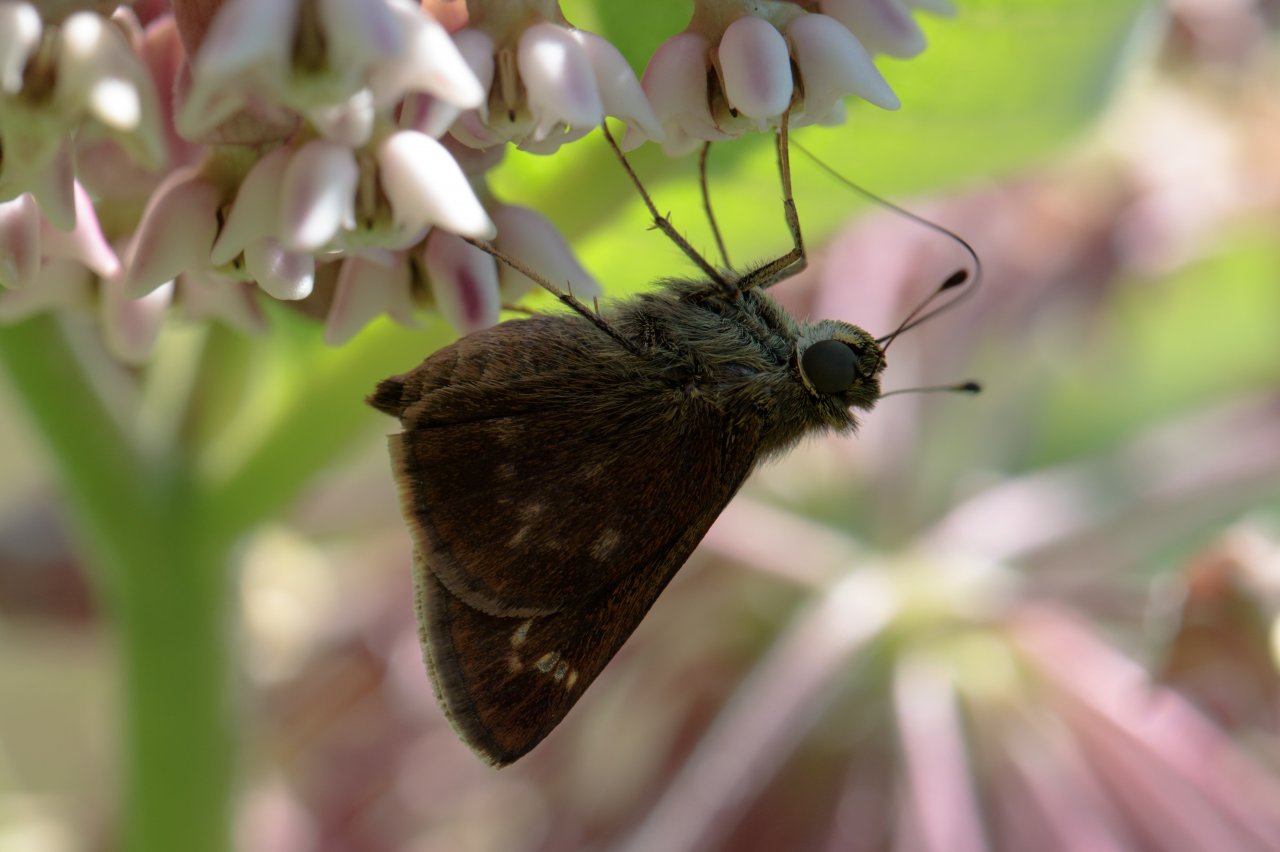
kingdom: Animalia
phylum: Arthropoda
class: Insecta
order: Lepidoptera
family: Hesperiidae
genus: Vernia
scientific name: Vernia verna
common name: Little Glassywing
